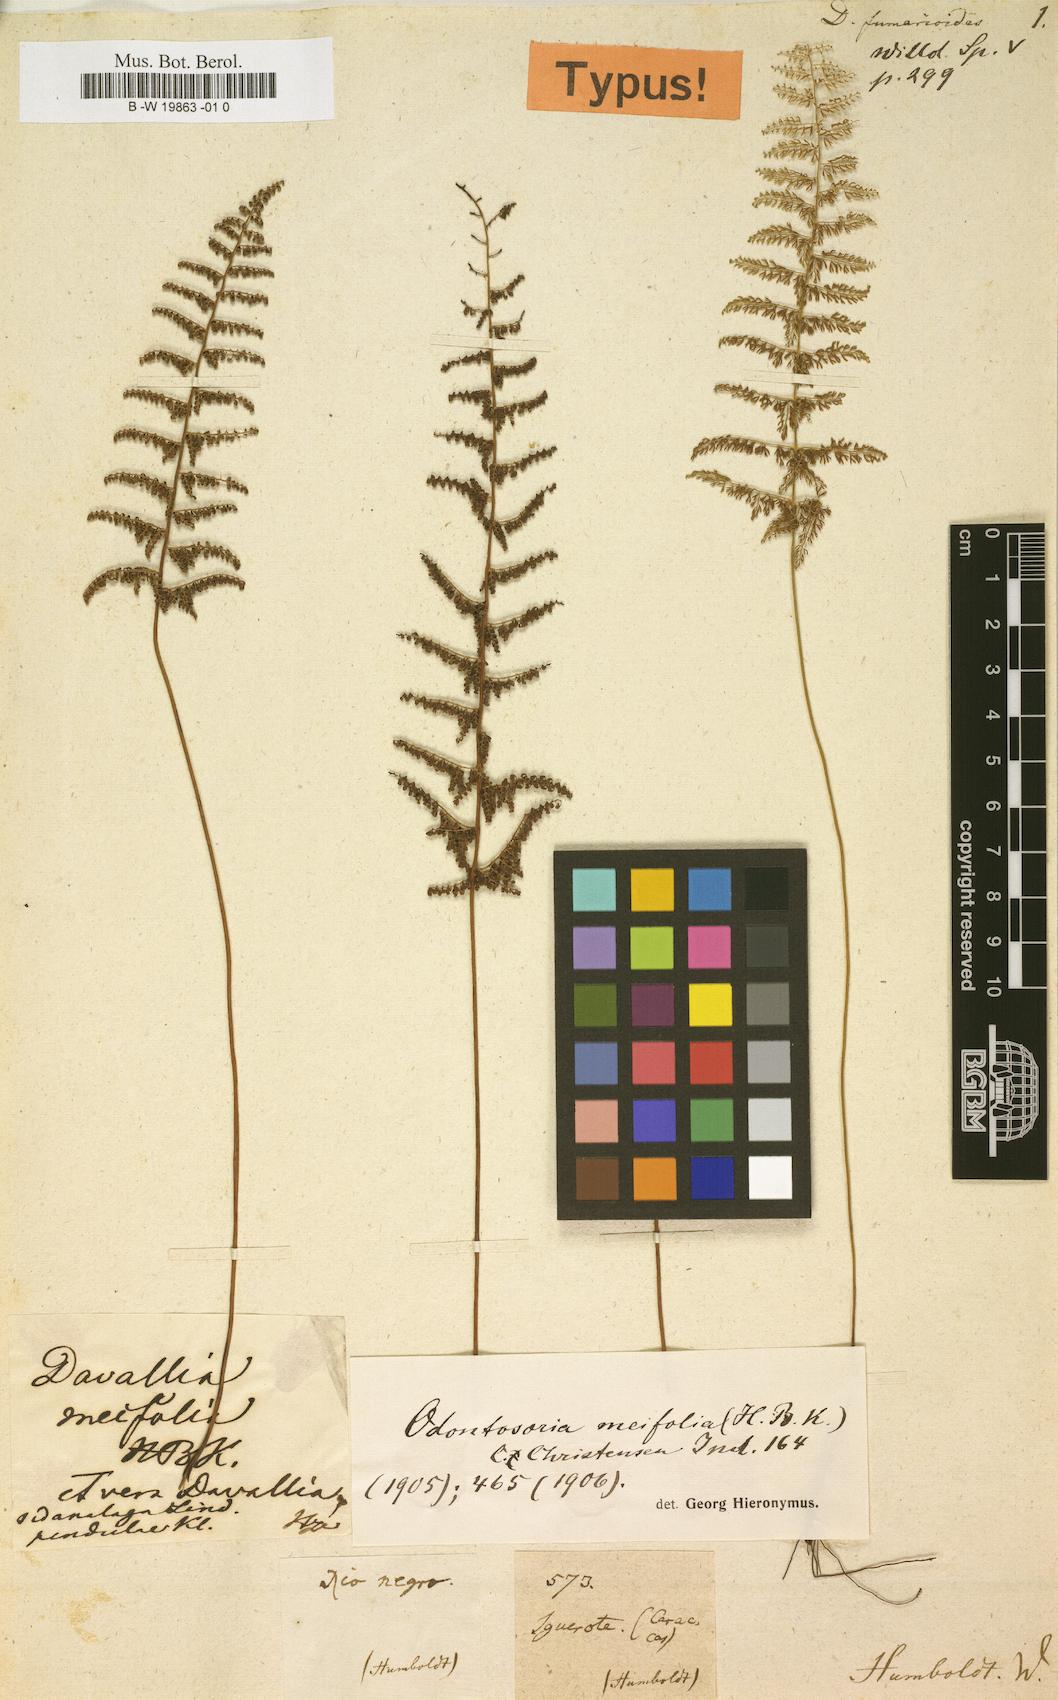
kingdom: Plantae
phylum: Tracheophyta
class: Polypodiopsida
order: Polypodiales
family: Lindsaeaceae
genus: Lindsaea
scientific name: Lindsaea meifolia
